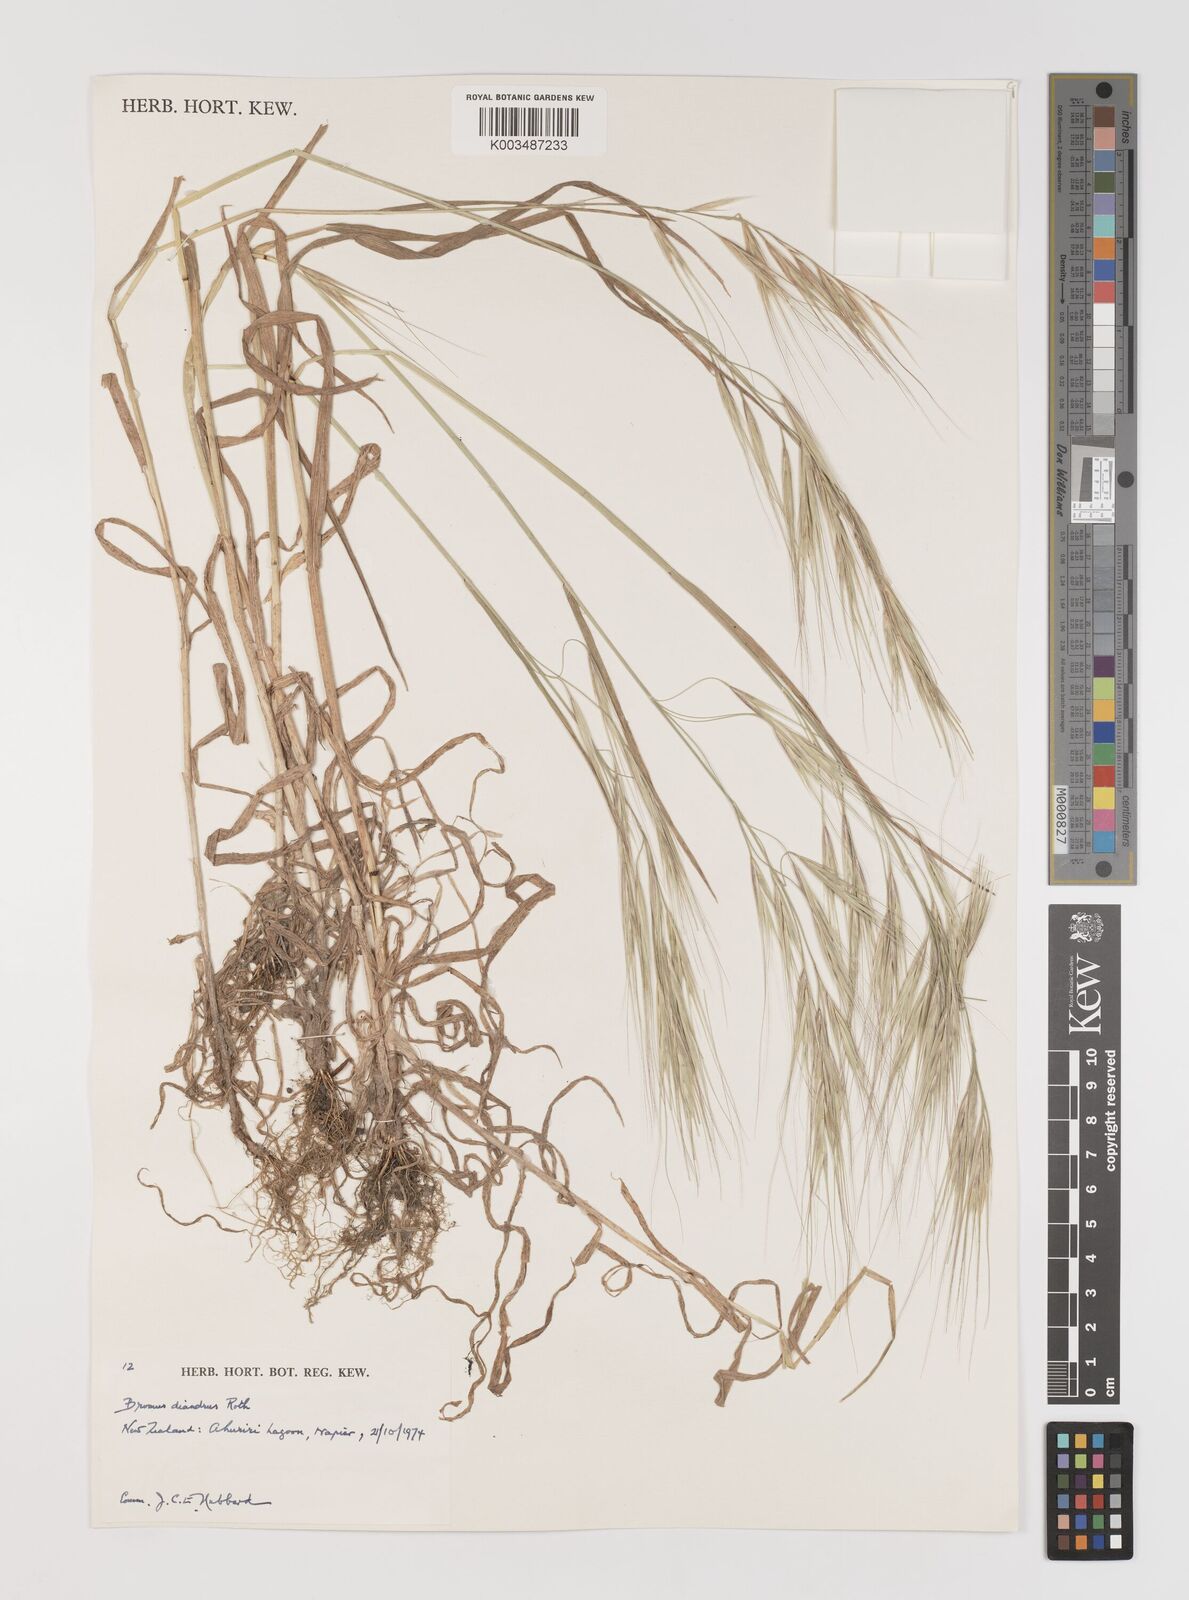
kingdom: Plantae
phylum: Tracheophyta
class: Liliopsida
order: Poales
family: Poaceae
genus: Bromus
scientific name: Bromus diandrus
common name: Ripgut brome
